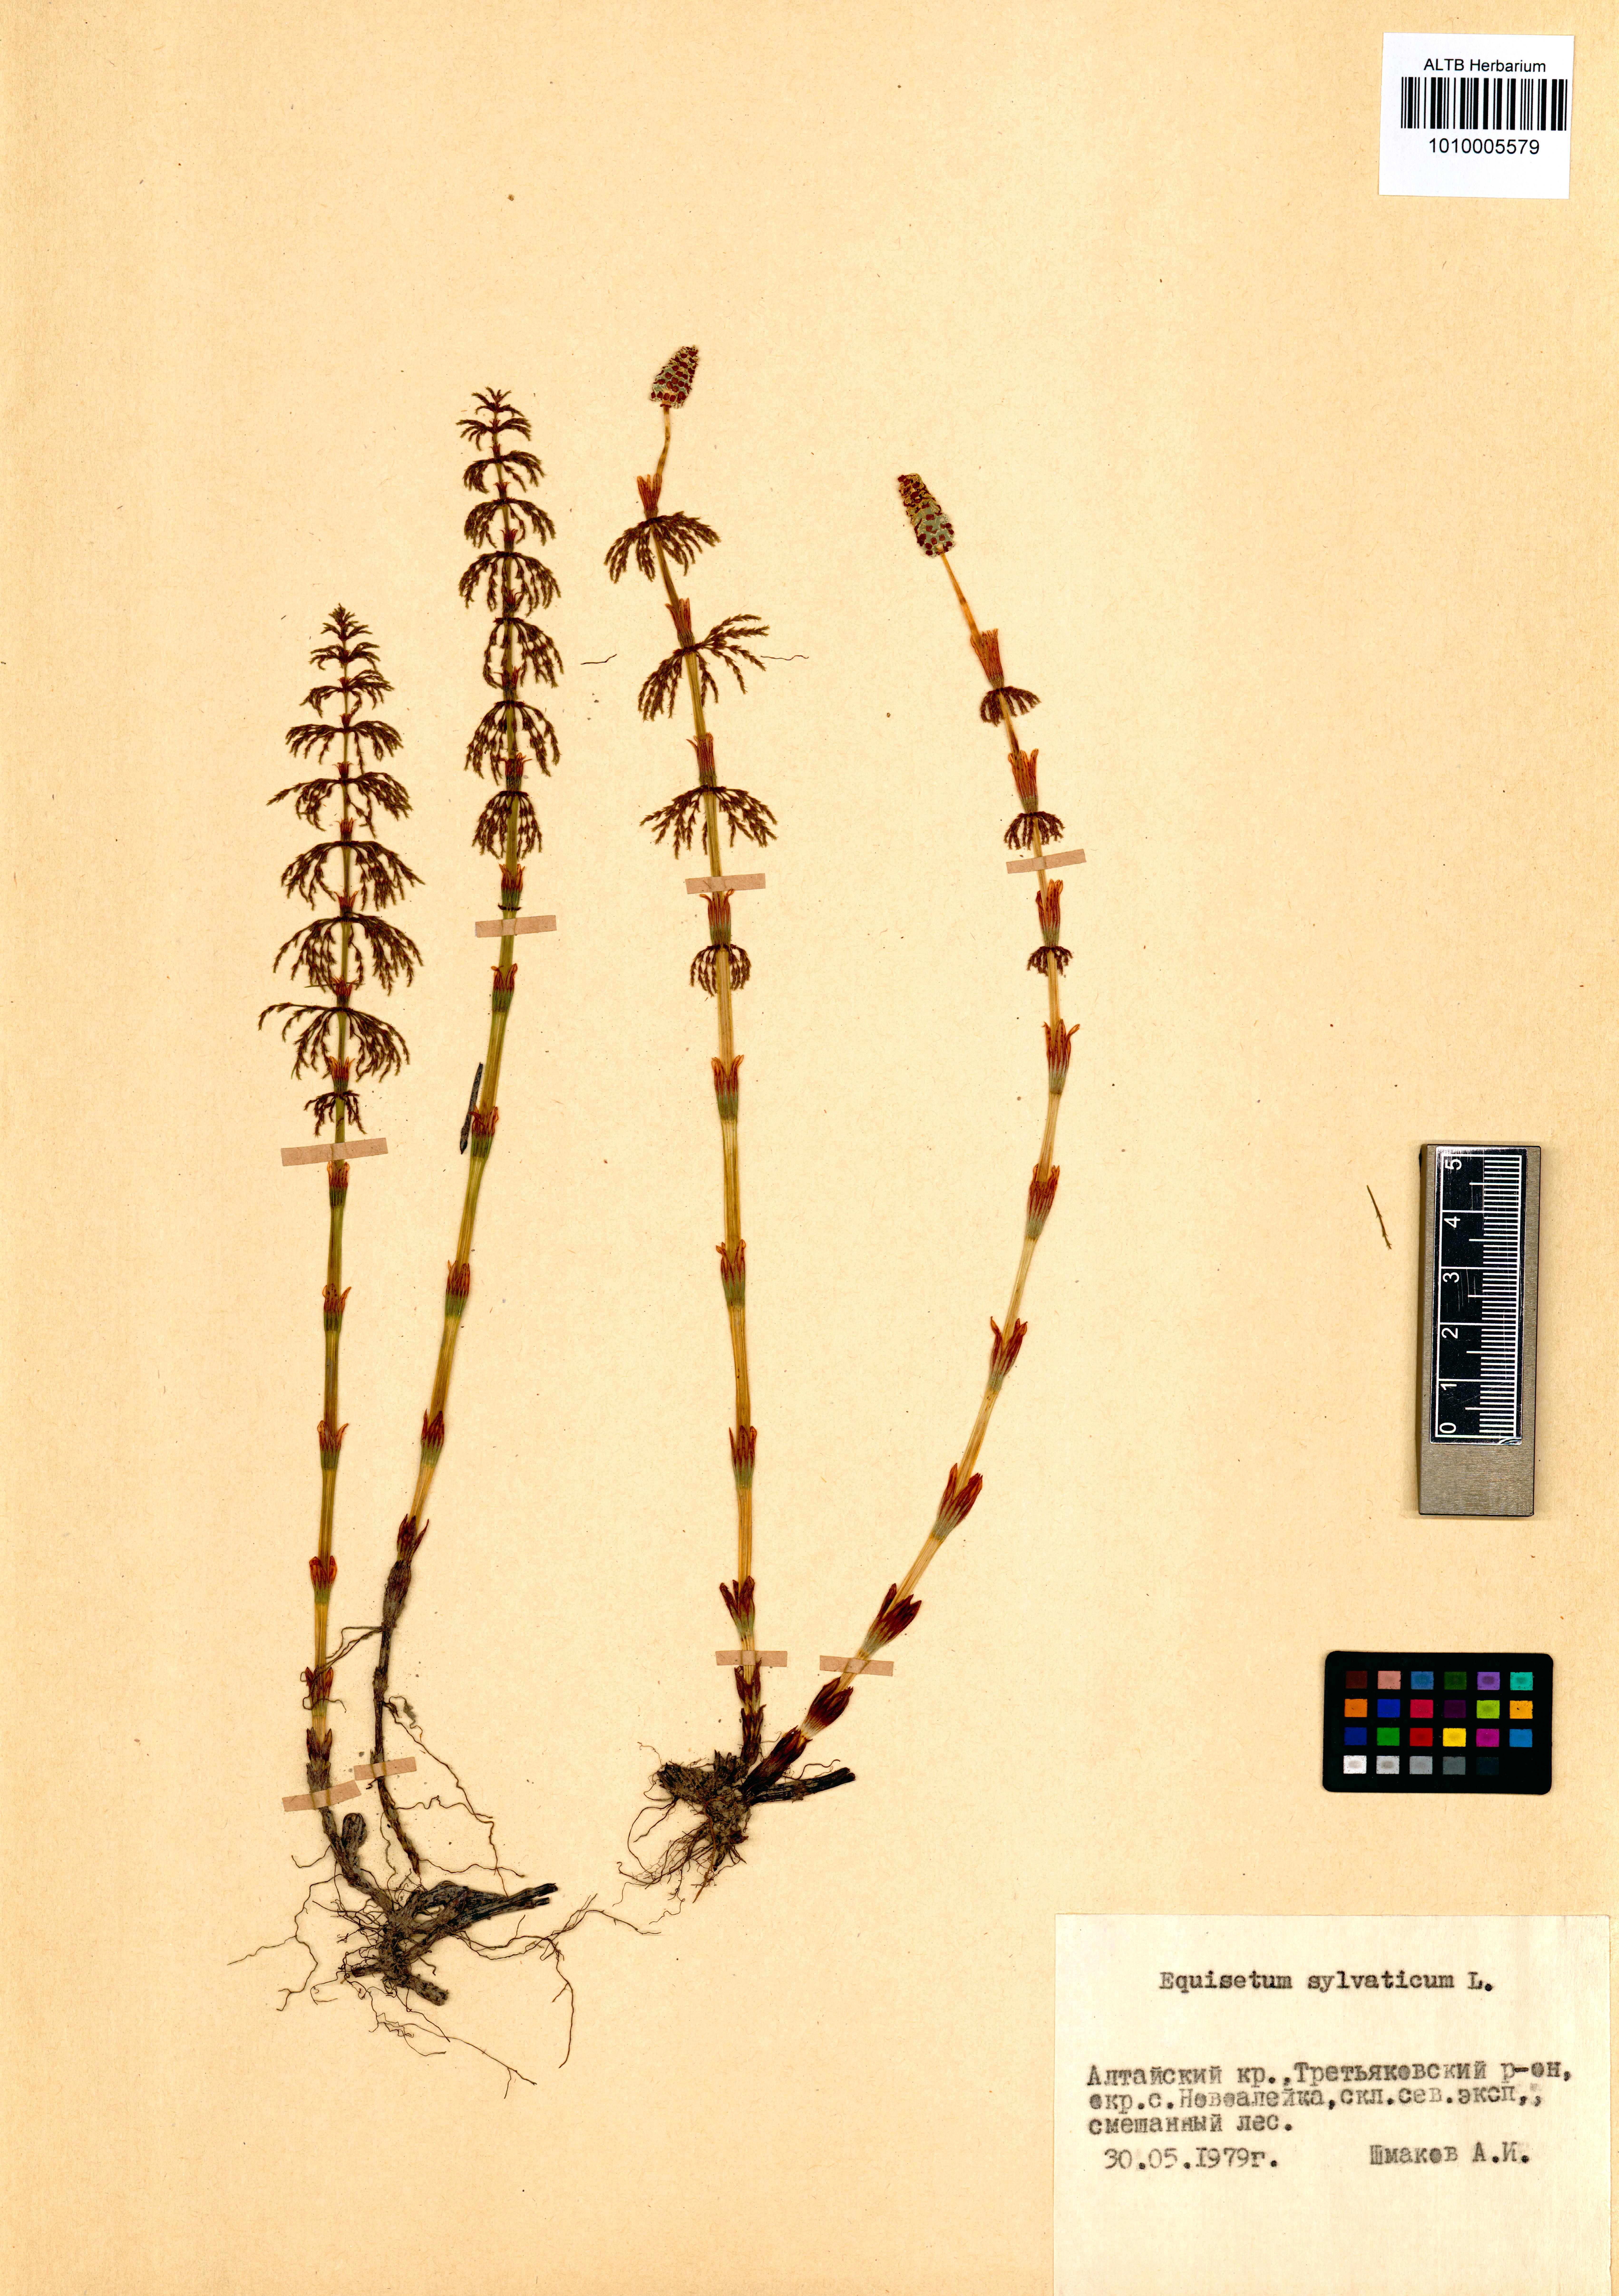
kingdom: Plantae
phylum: Tracheophyta
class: Polypodiopsida
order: Equisetales
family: Equisetaceae
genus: Equisetum
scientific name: Equisetum sylvaticum
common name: Wood horsetail
